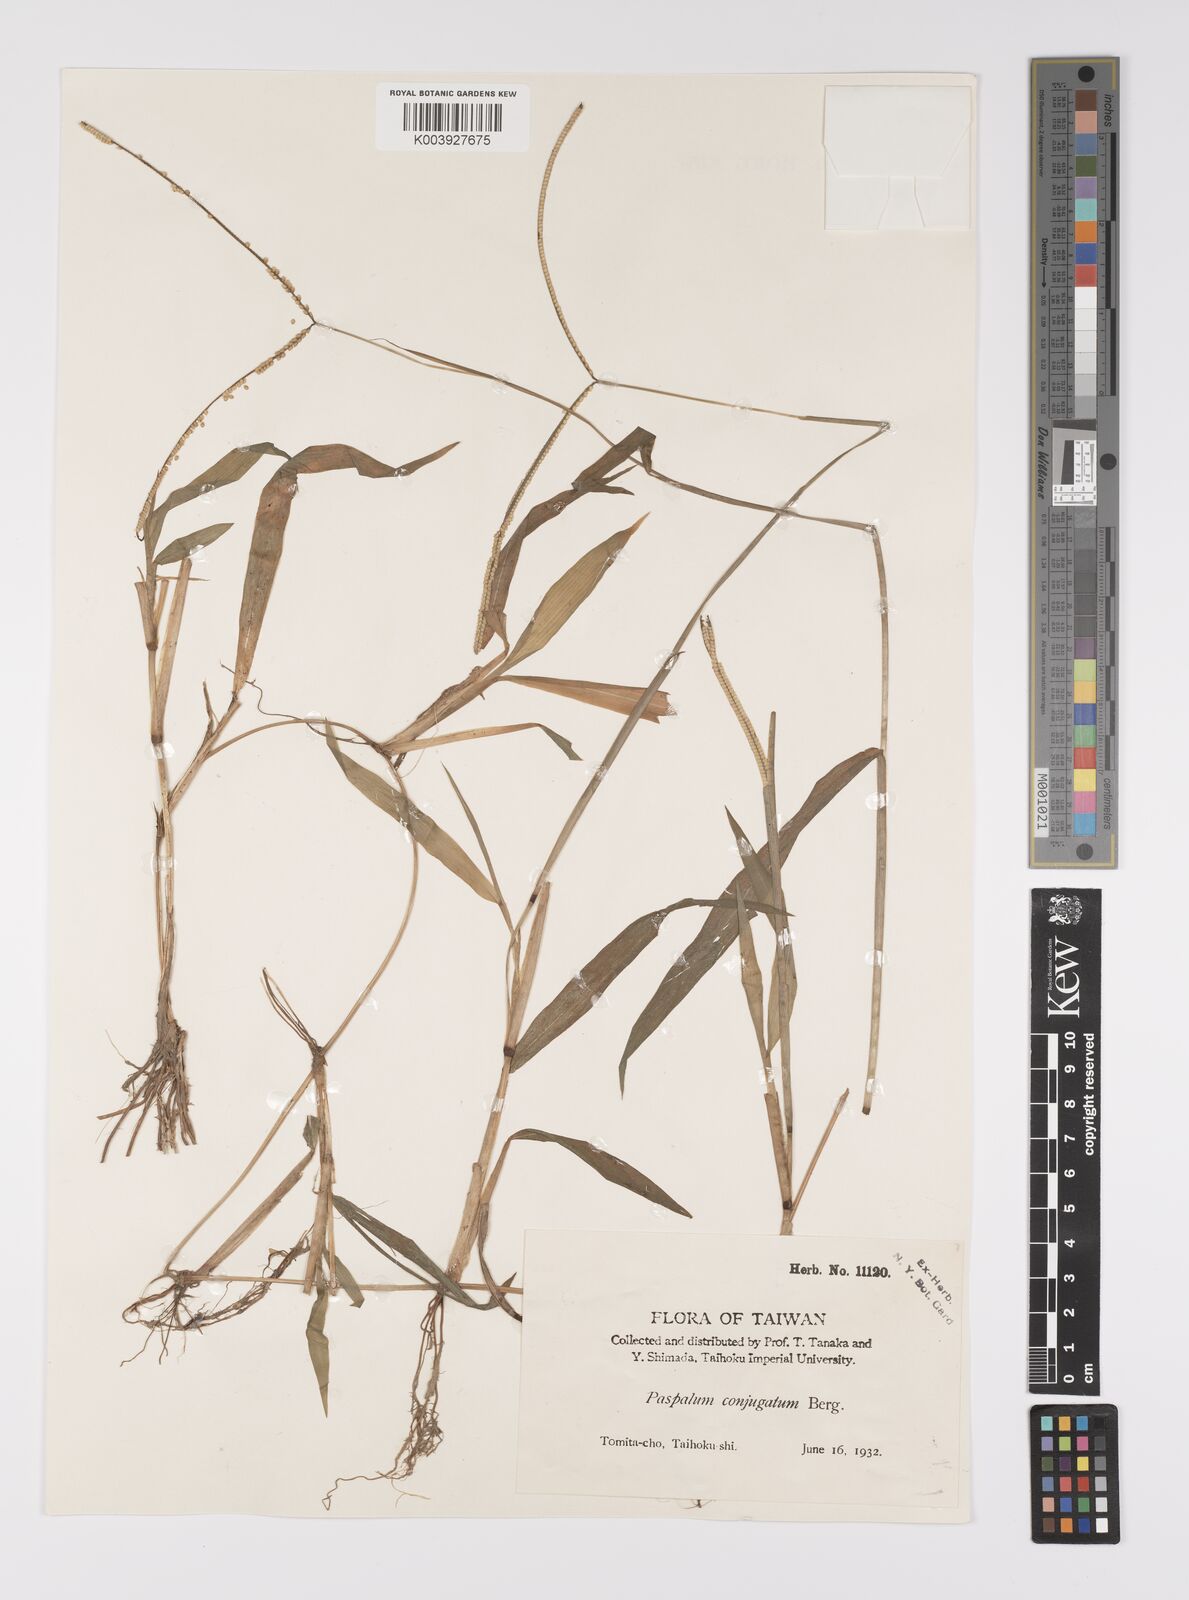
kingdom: Plantae
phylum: Tracheophyta
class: Liliopsida
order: Poales
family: Poaceae
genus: Paspalum
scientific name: Paspalum conjugatum
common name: Hilograss
